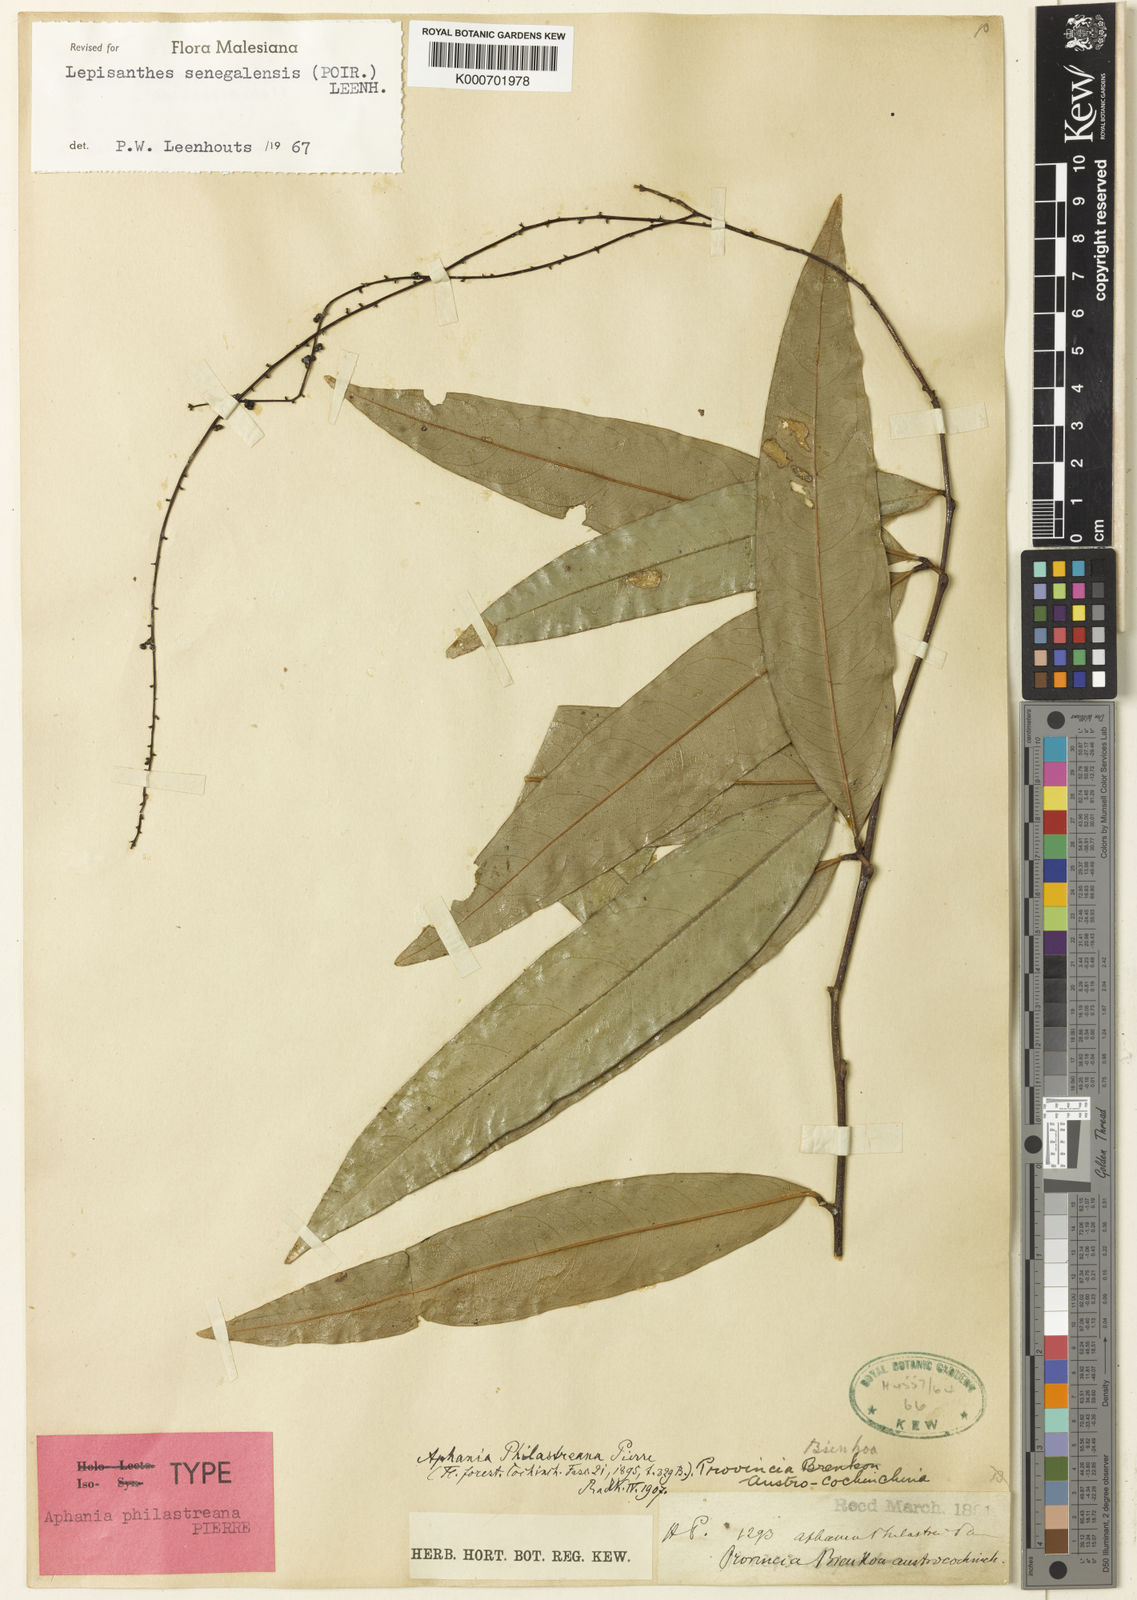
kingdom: Plantae
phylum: Tracheophyta
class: Magnoliopsida
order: Sapindales
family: Sapindaceae
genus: Lepisanthes
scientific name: Lepisanthes senegalensis
